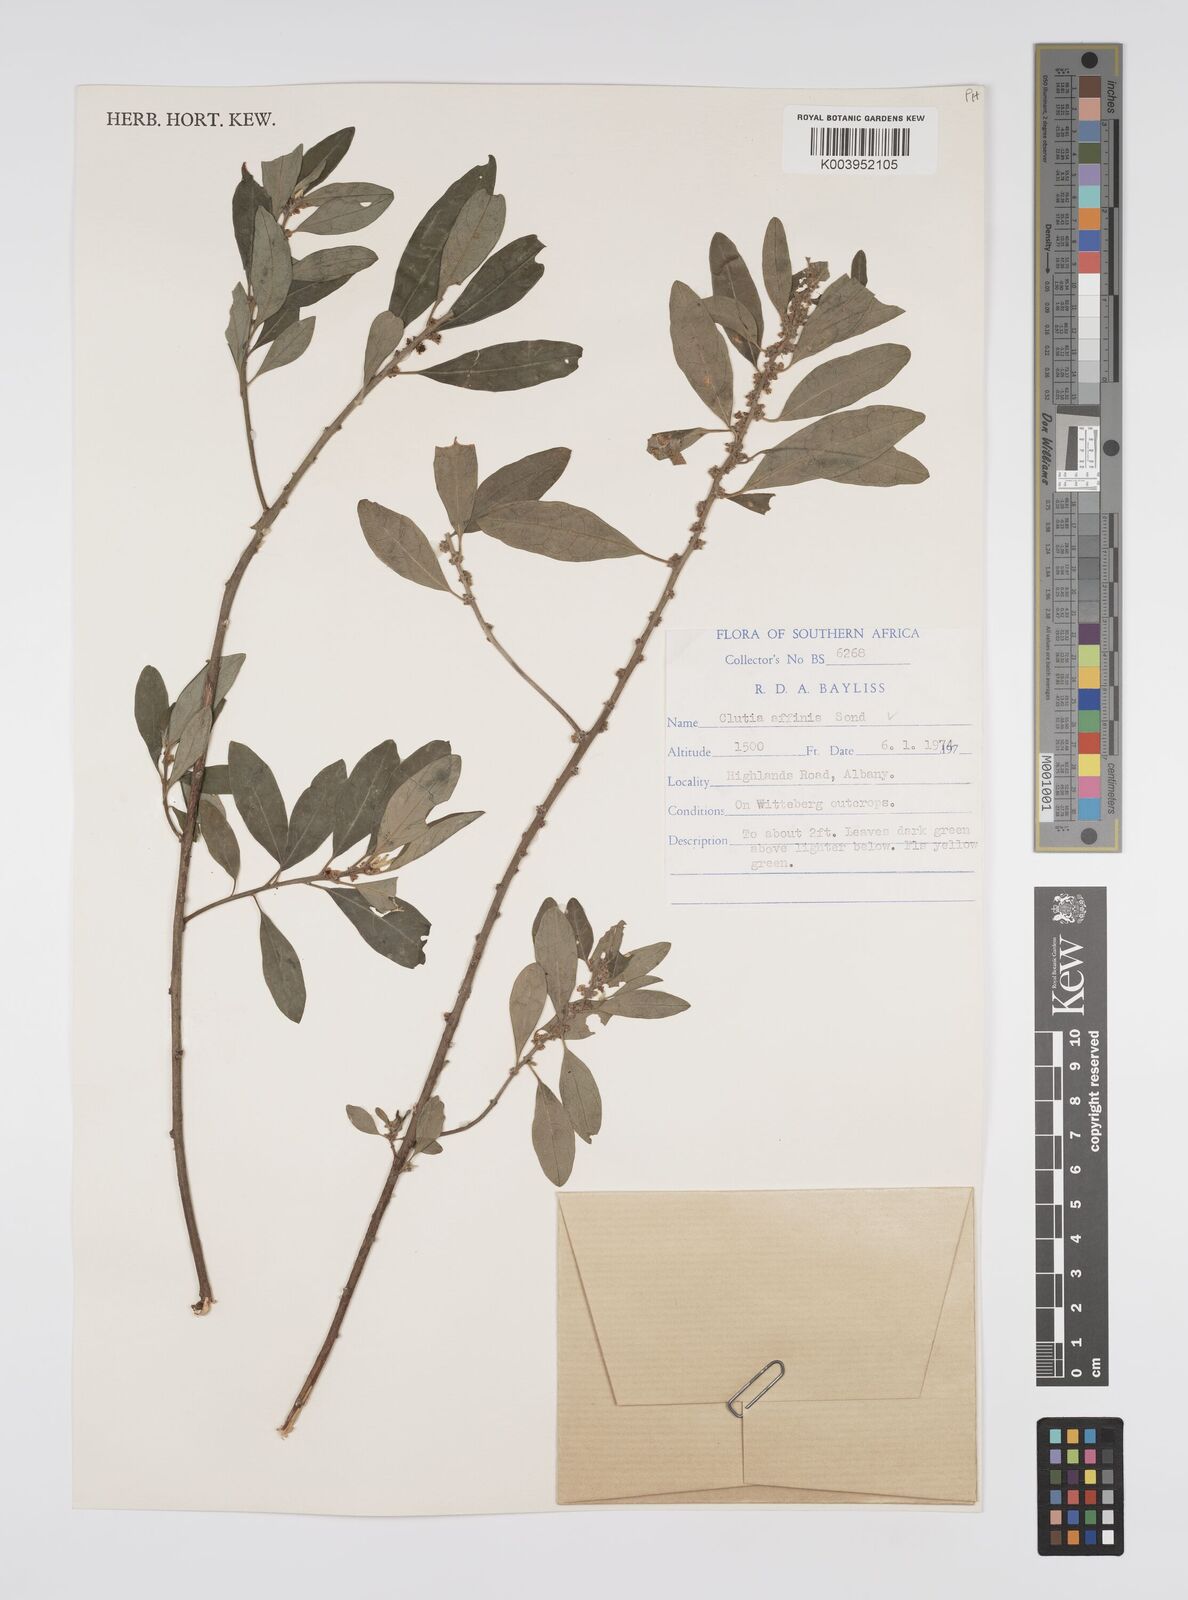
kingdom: Plantae
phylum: Tracheophyta
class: Magnoliopsida
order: Malpighiales
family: Peraceae
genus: Clutia
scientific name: Clutia affinis
